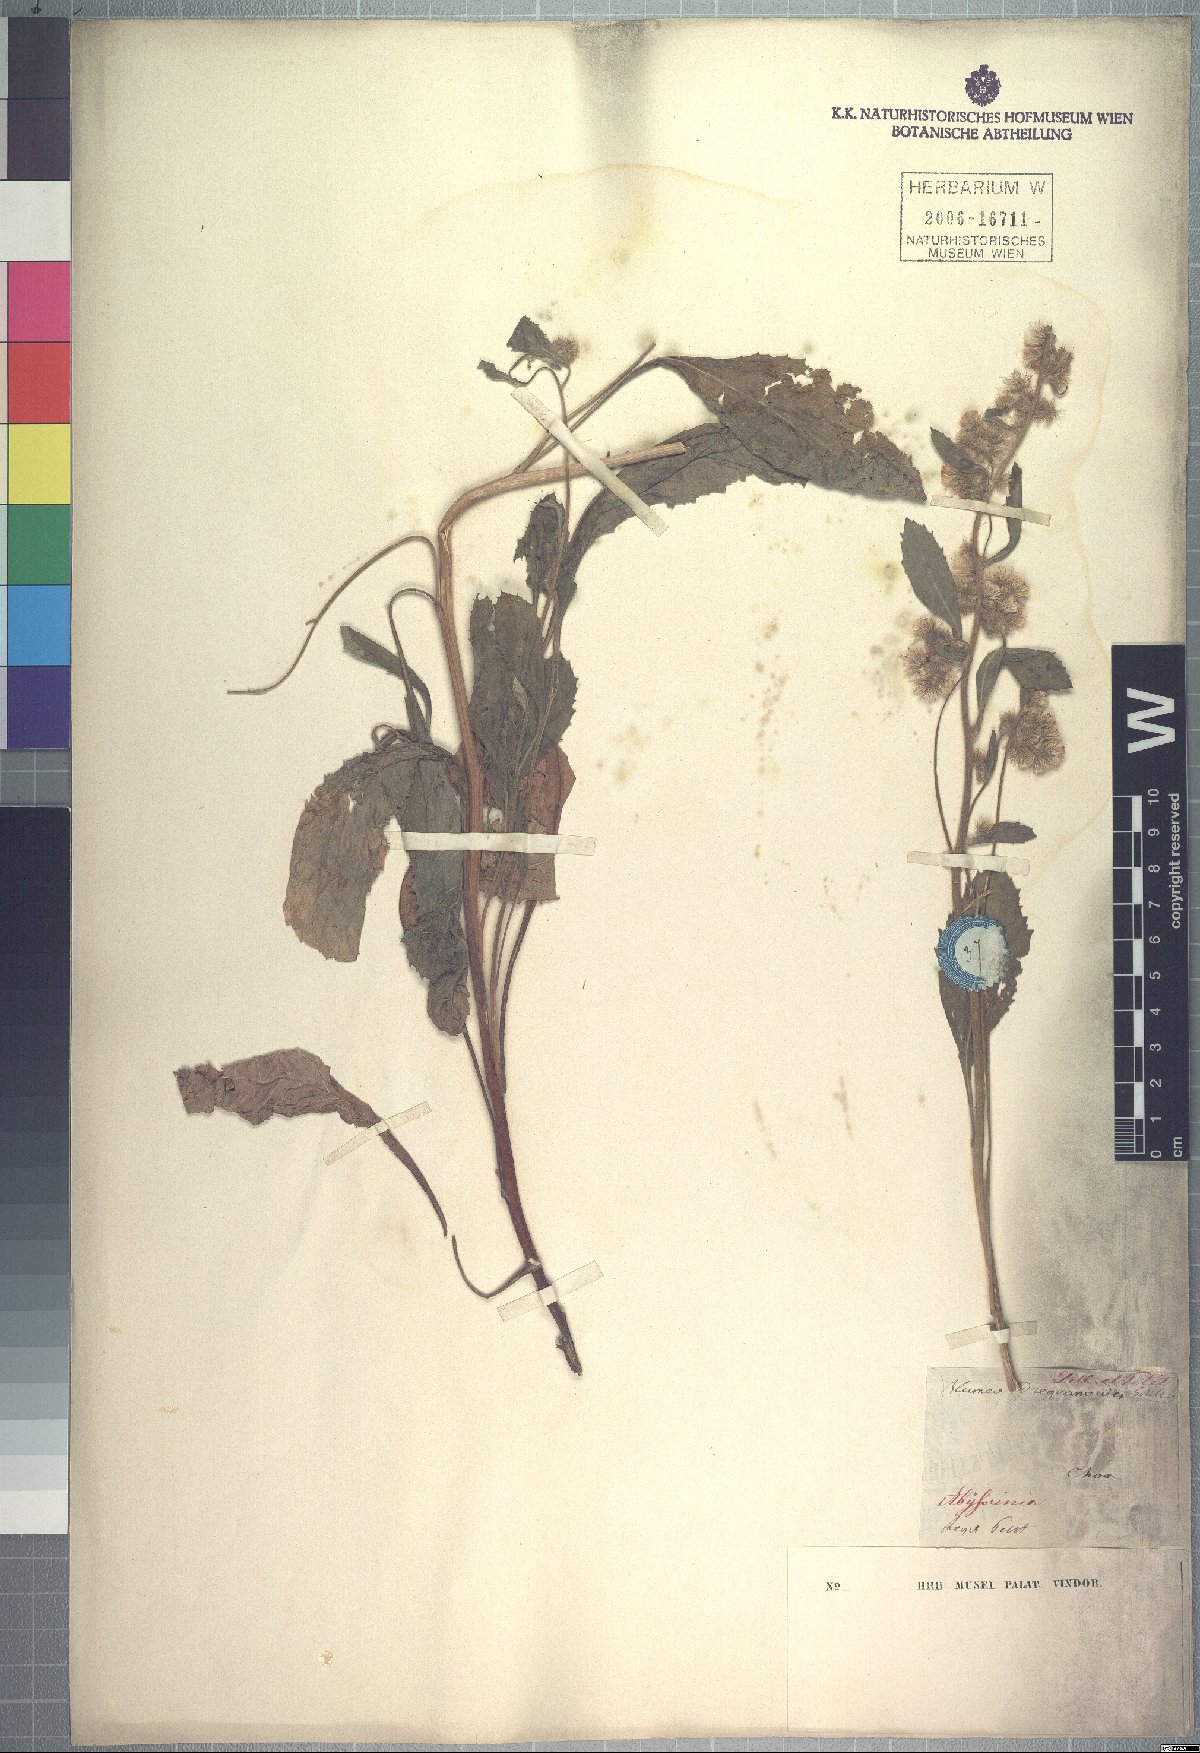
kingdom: Plantae
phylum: Tracheophyta
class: Magnoliopsida
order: Asterales
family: Asteraceae
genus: Blumea
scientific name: Blumea lacera
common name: Malay blumea
